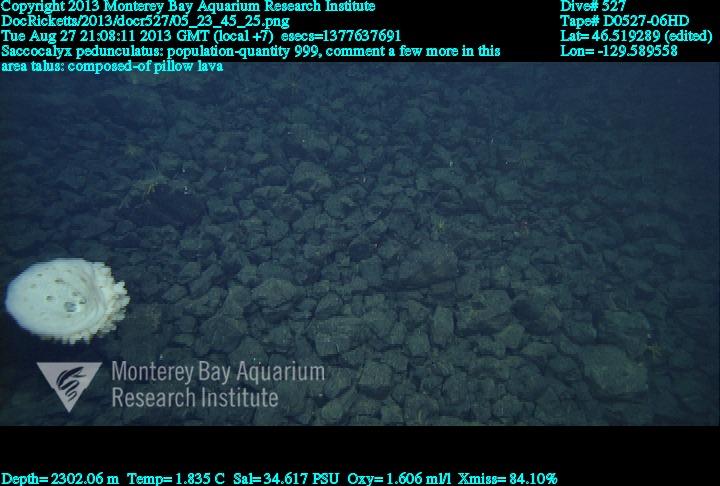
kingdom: Animalia
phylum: Porifera
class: Hexactinellida
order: Lyssacinosida
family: Euplectellidae
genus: Saccocalyx
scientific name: Saccocalyx pedunculatus
